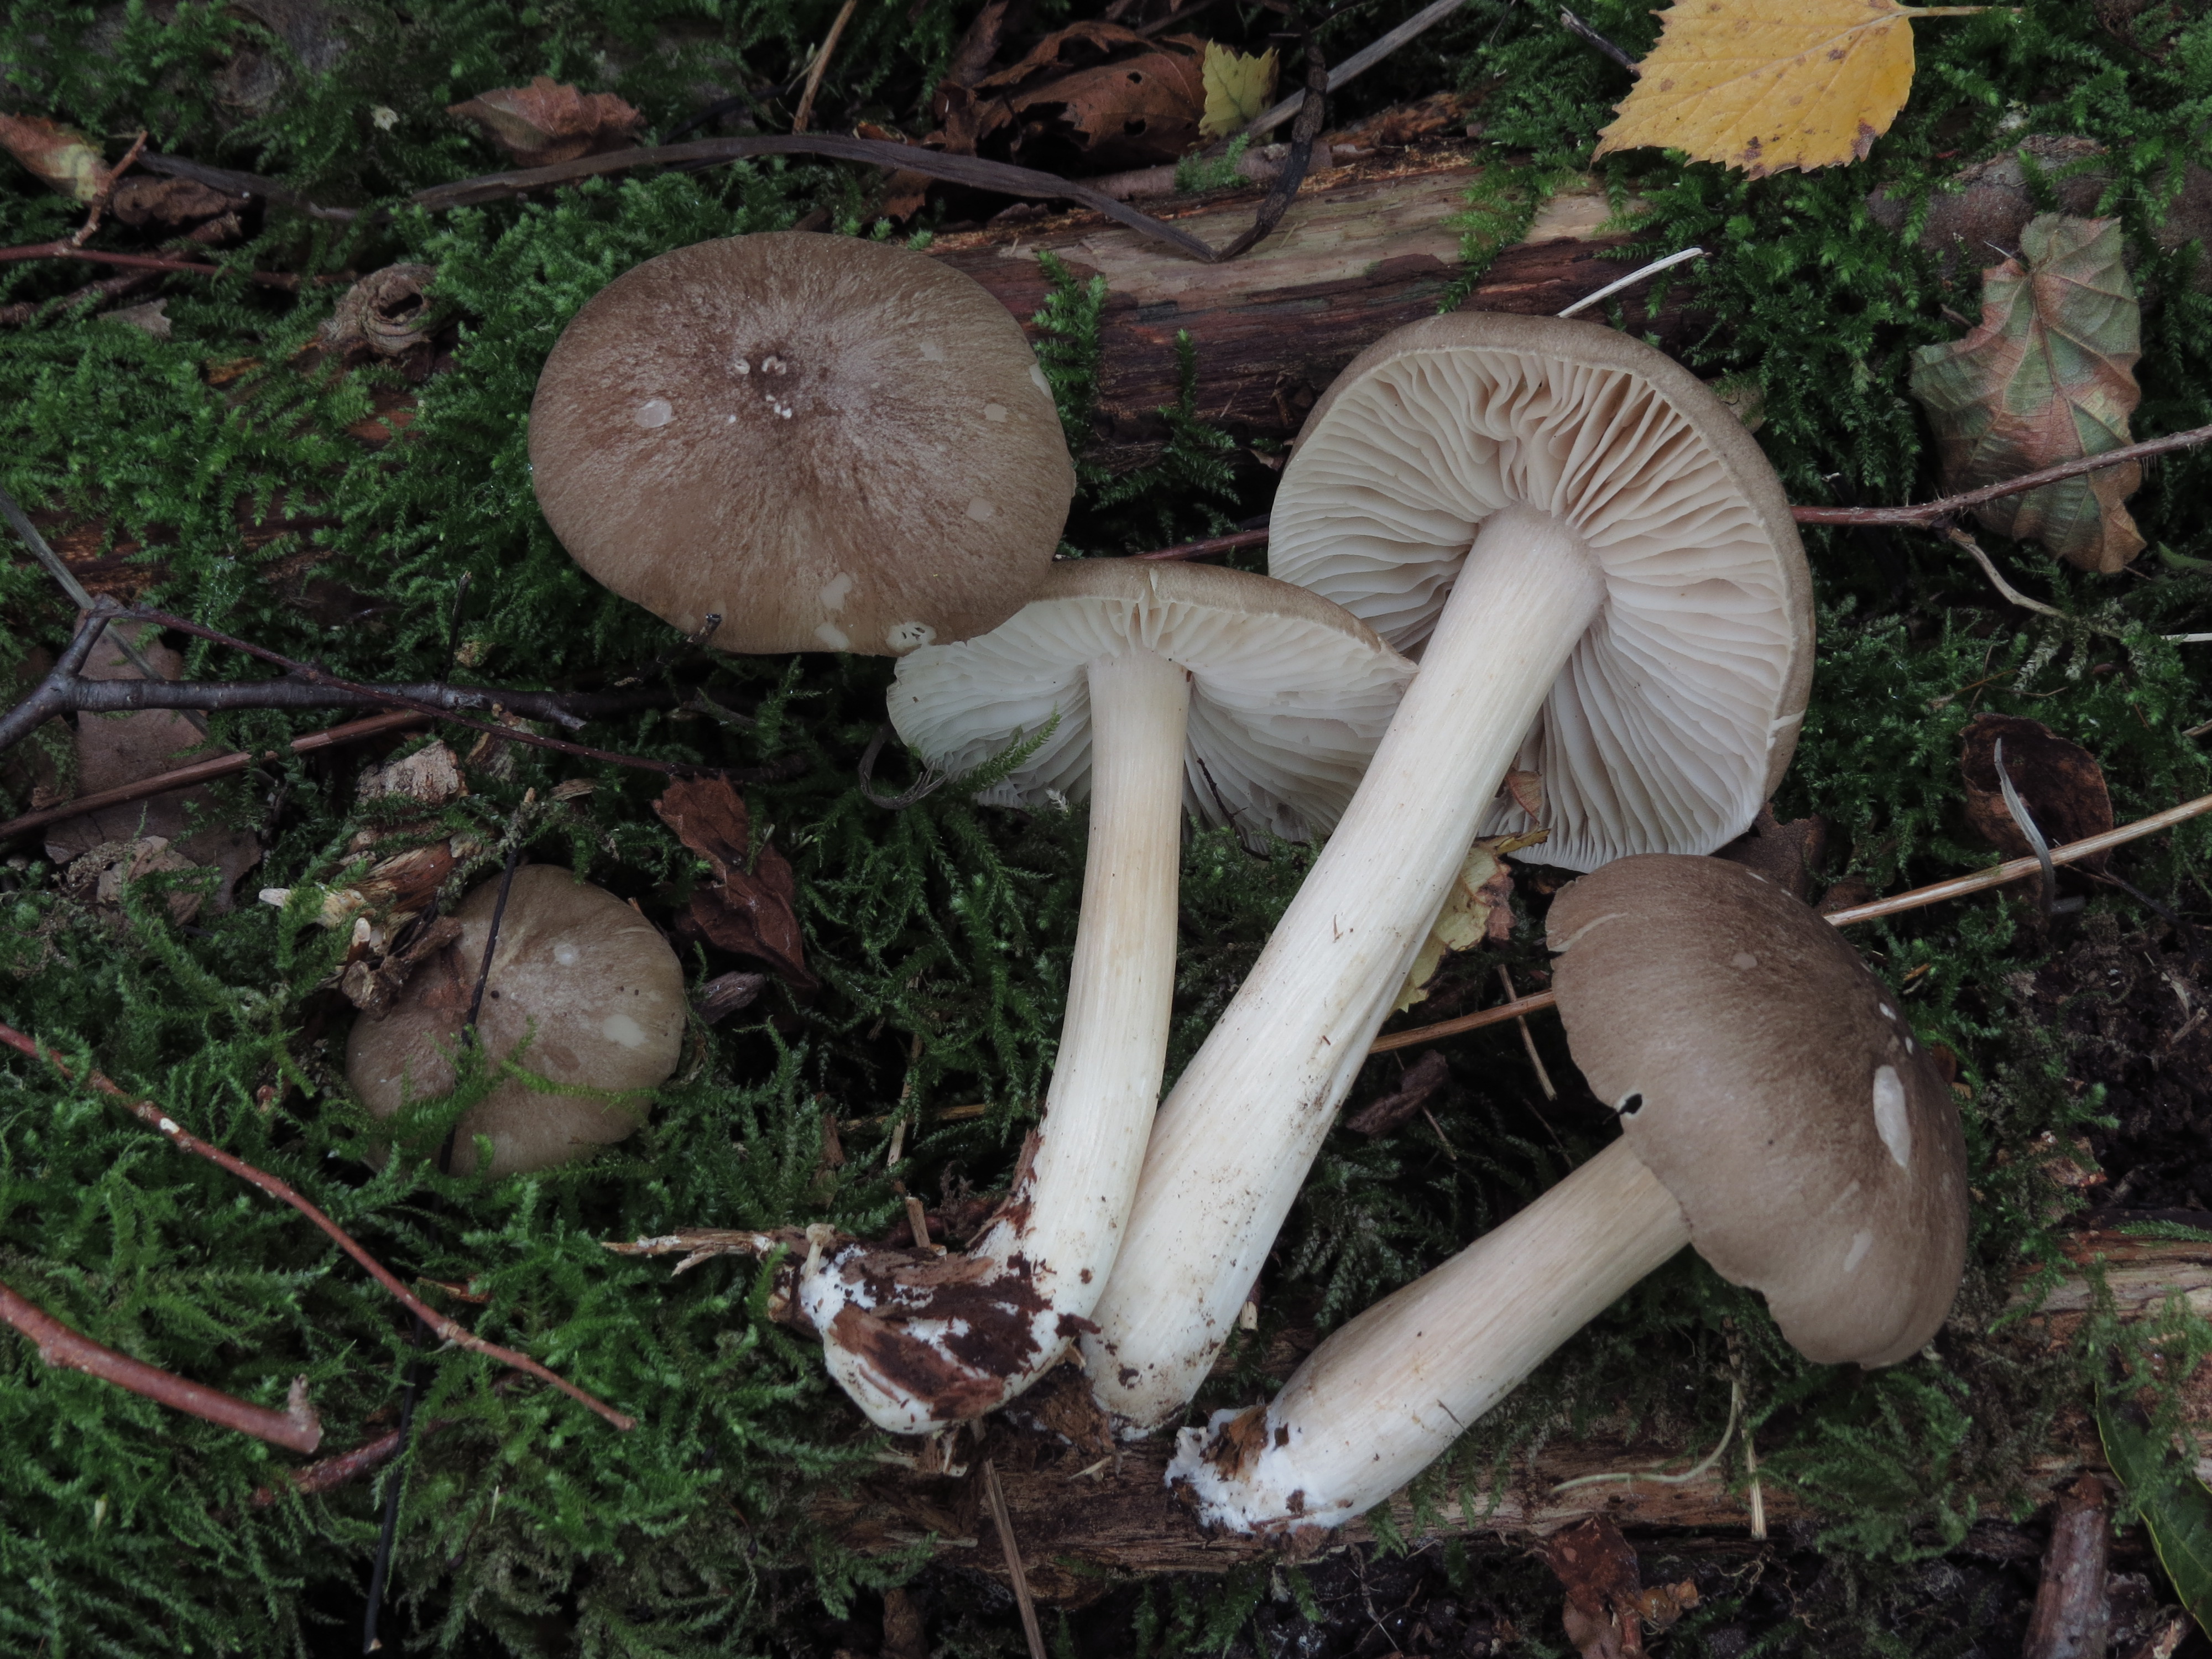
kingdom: Fungi
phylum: Basidiomycota
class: Agaricomycetes
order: Agaricales
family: Tricholomataceae
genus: Megacollybia
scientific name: Megacollybia platyphylla
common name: Whitelaced shank
